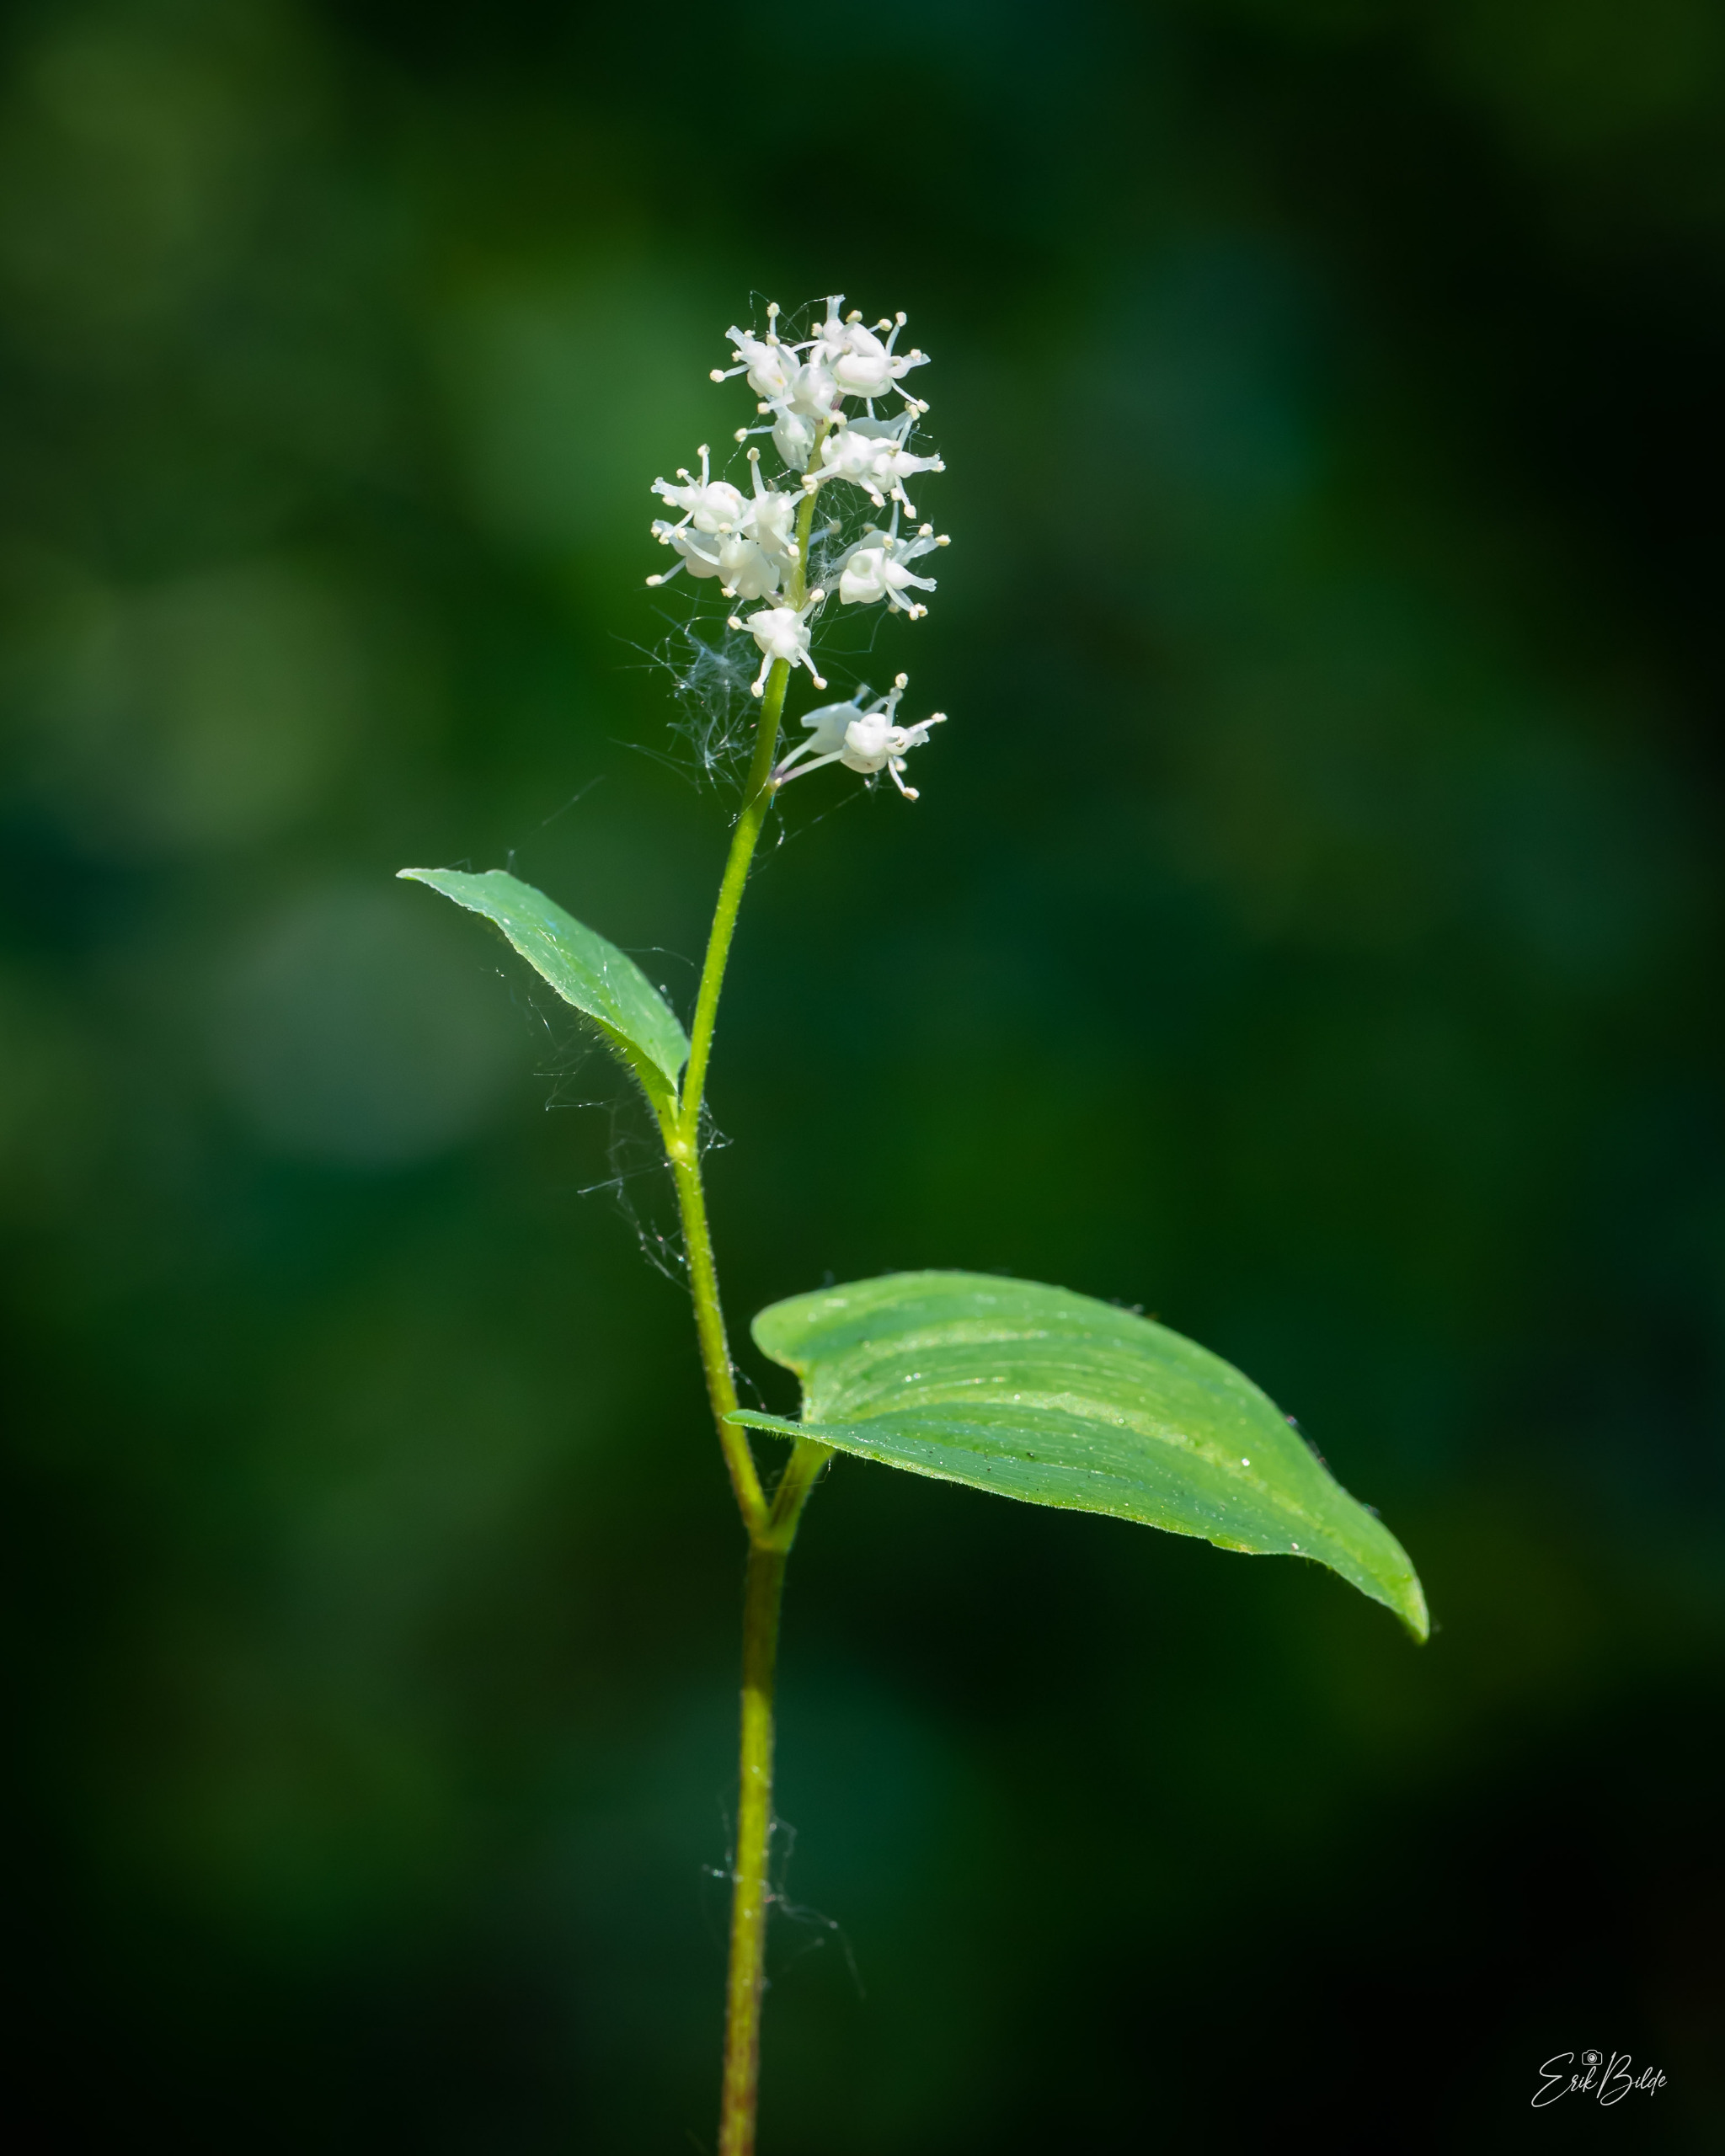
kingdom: Plantae
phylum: Tracheophyta
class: Liliopsida
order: Asparagales
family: Asparagaceae
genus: Maianthemum
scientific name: Maianthemum bifolium
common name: Majblomst
